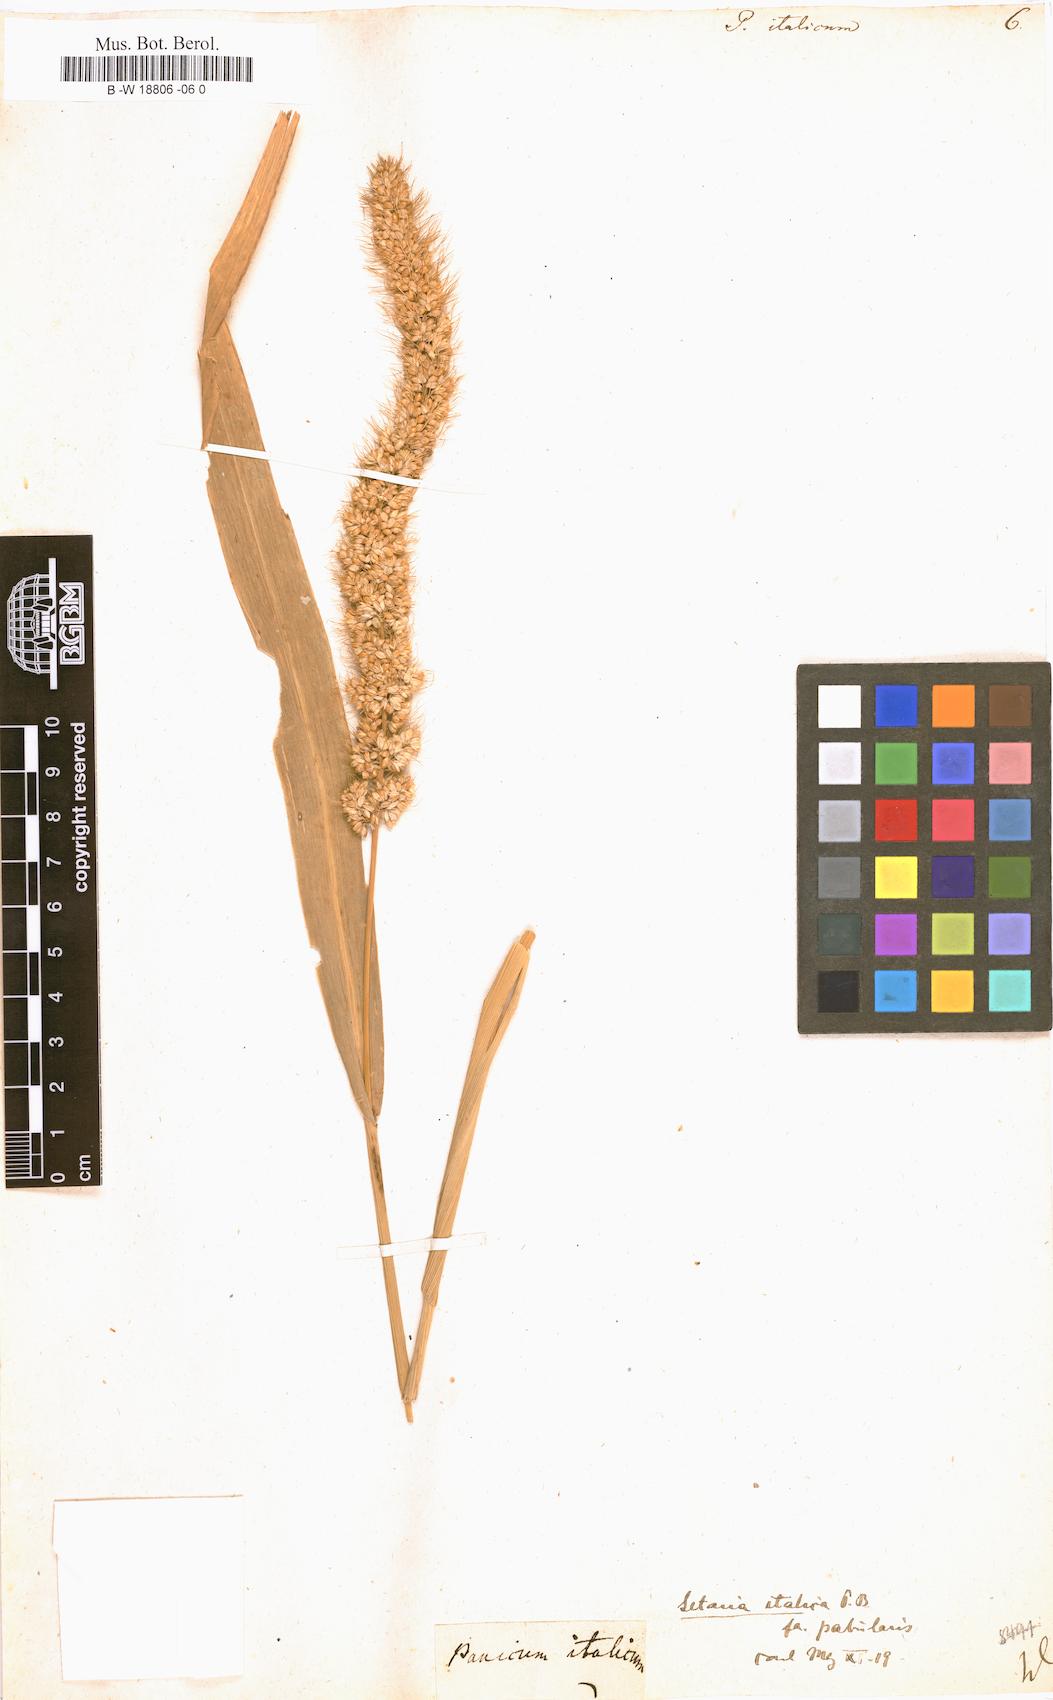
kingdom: Plantae
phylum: Tracheophyta
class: Liliopsida
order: Poales
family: Poaceae
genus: Setaria
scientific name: Setaria italica
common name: Foxtail bristle-grass
